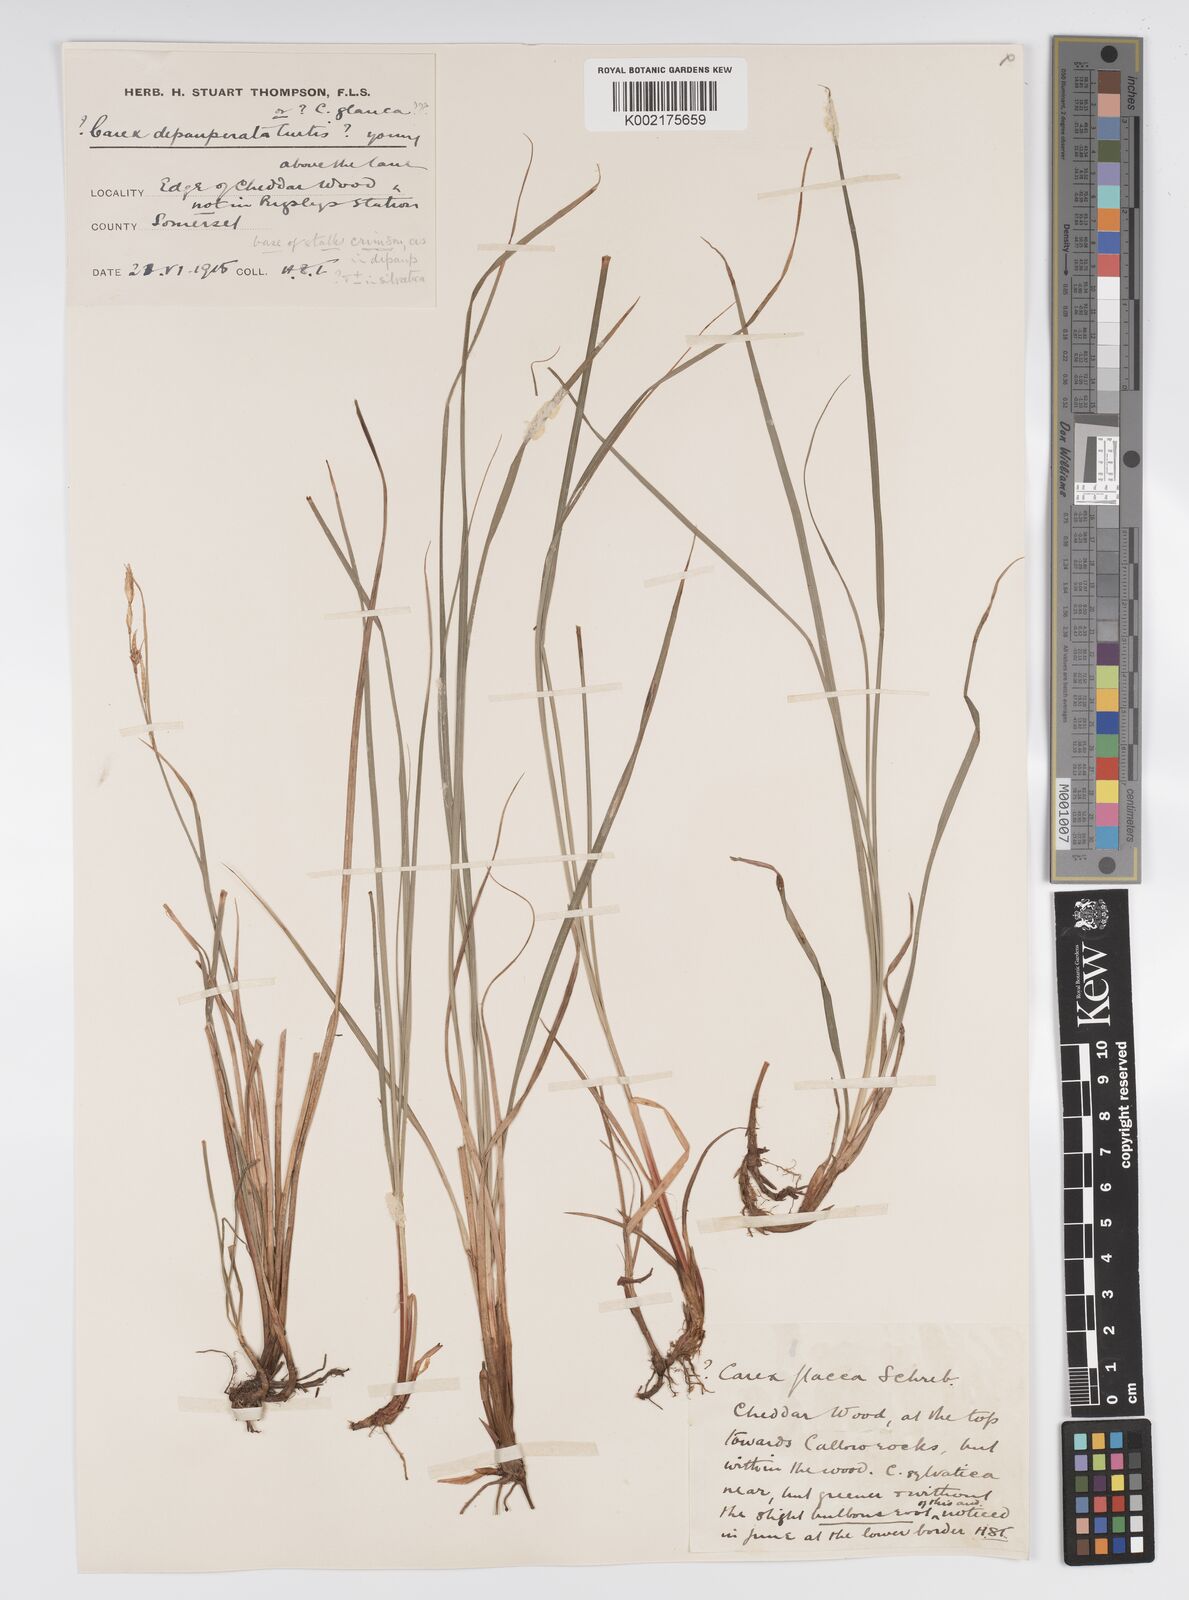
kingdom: Plantae
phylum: Tracheophyta
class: Liliopsida
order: Poales
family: Cyperaceae
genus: Carex
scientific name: Carex depauperata
